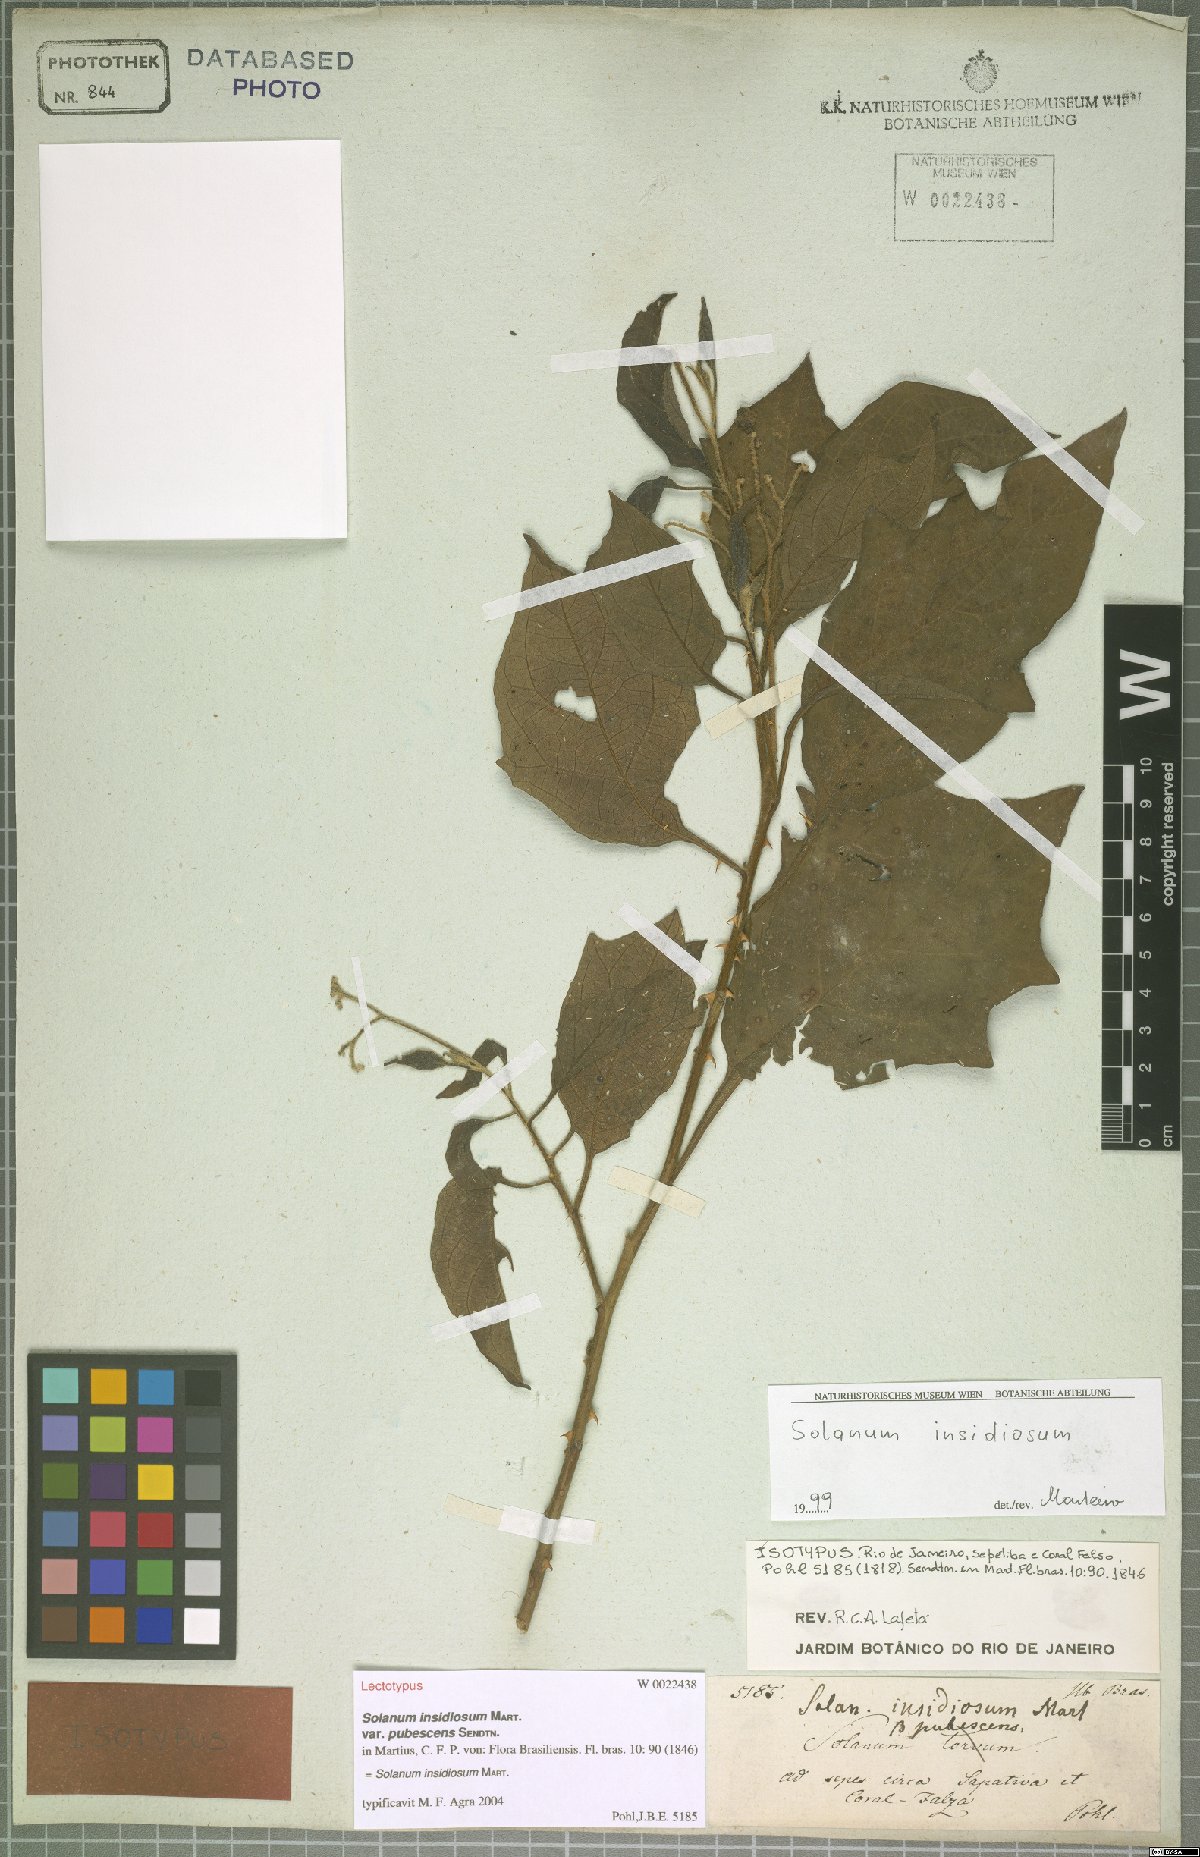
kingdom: Plantae
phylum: Tracheophyta
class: Magnoliopsida
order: Solanales
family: Solanaceae
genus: Solanum
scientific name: Solanum insidiosum
